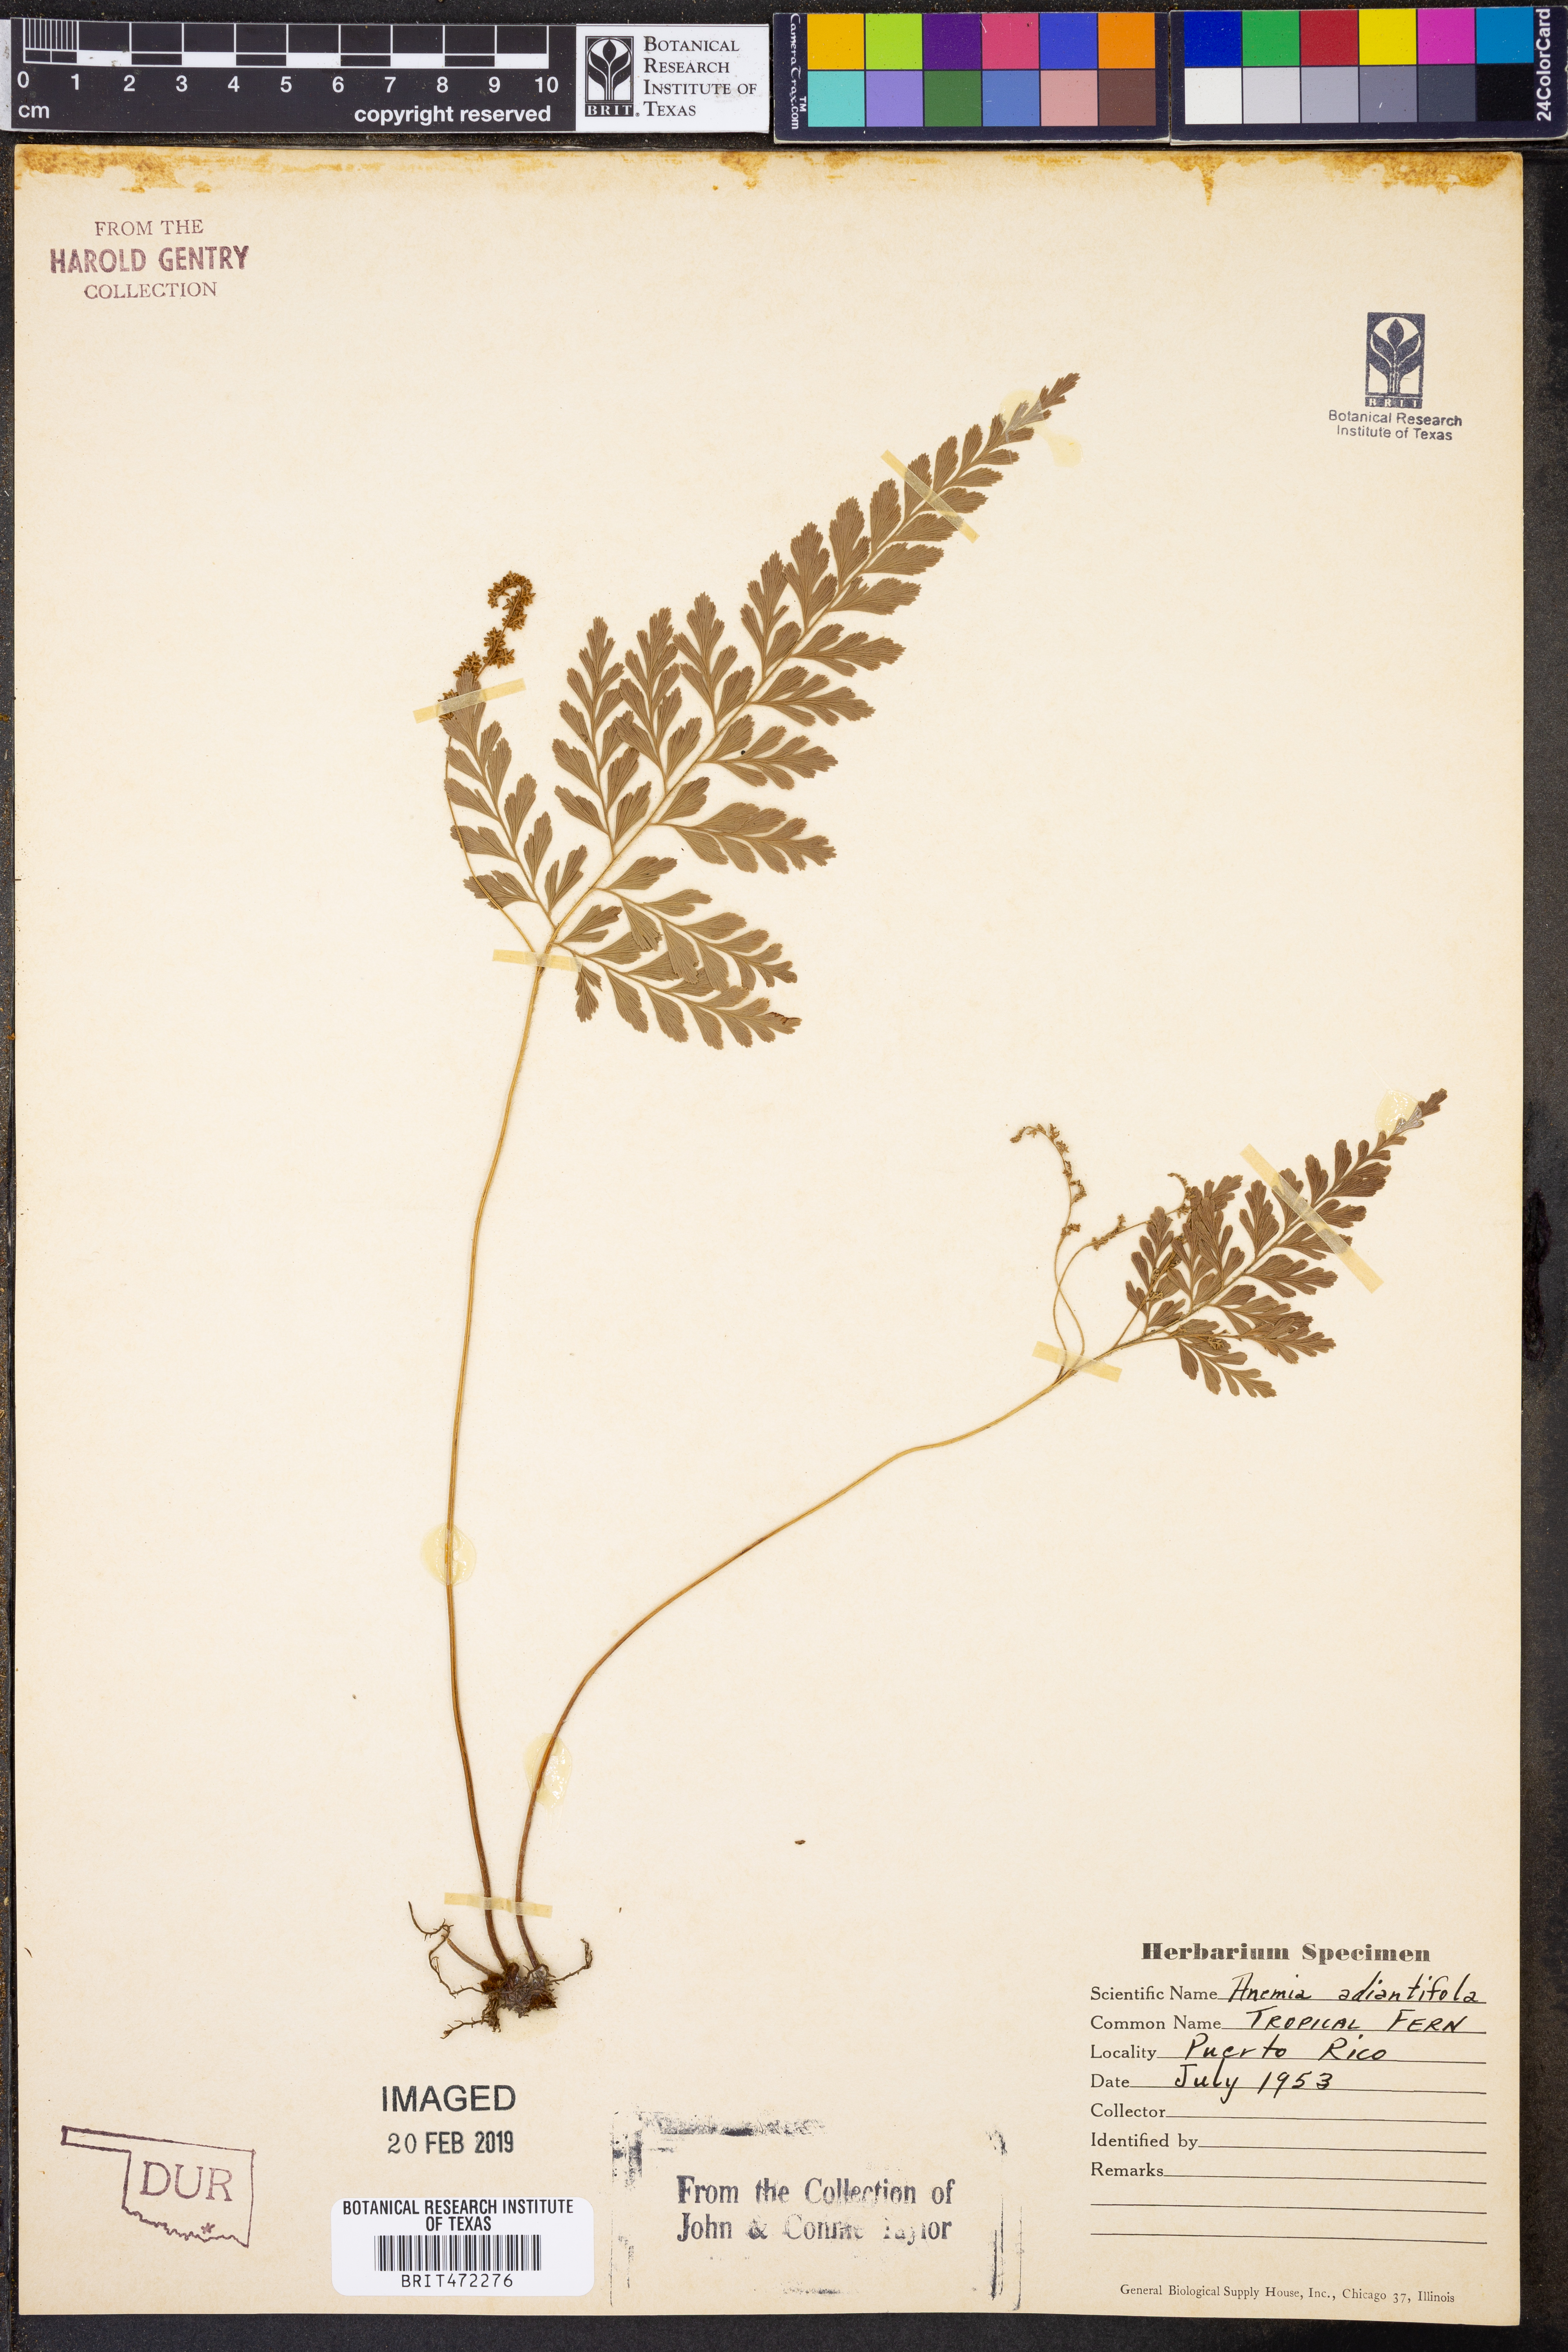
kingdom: Plantae
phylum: Tracheophyta
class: Polypodiopsida
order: Schizaeales
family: Anemiaceae
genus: Anemia
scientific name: Anemia adiantifolia
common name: Pine fern
